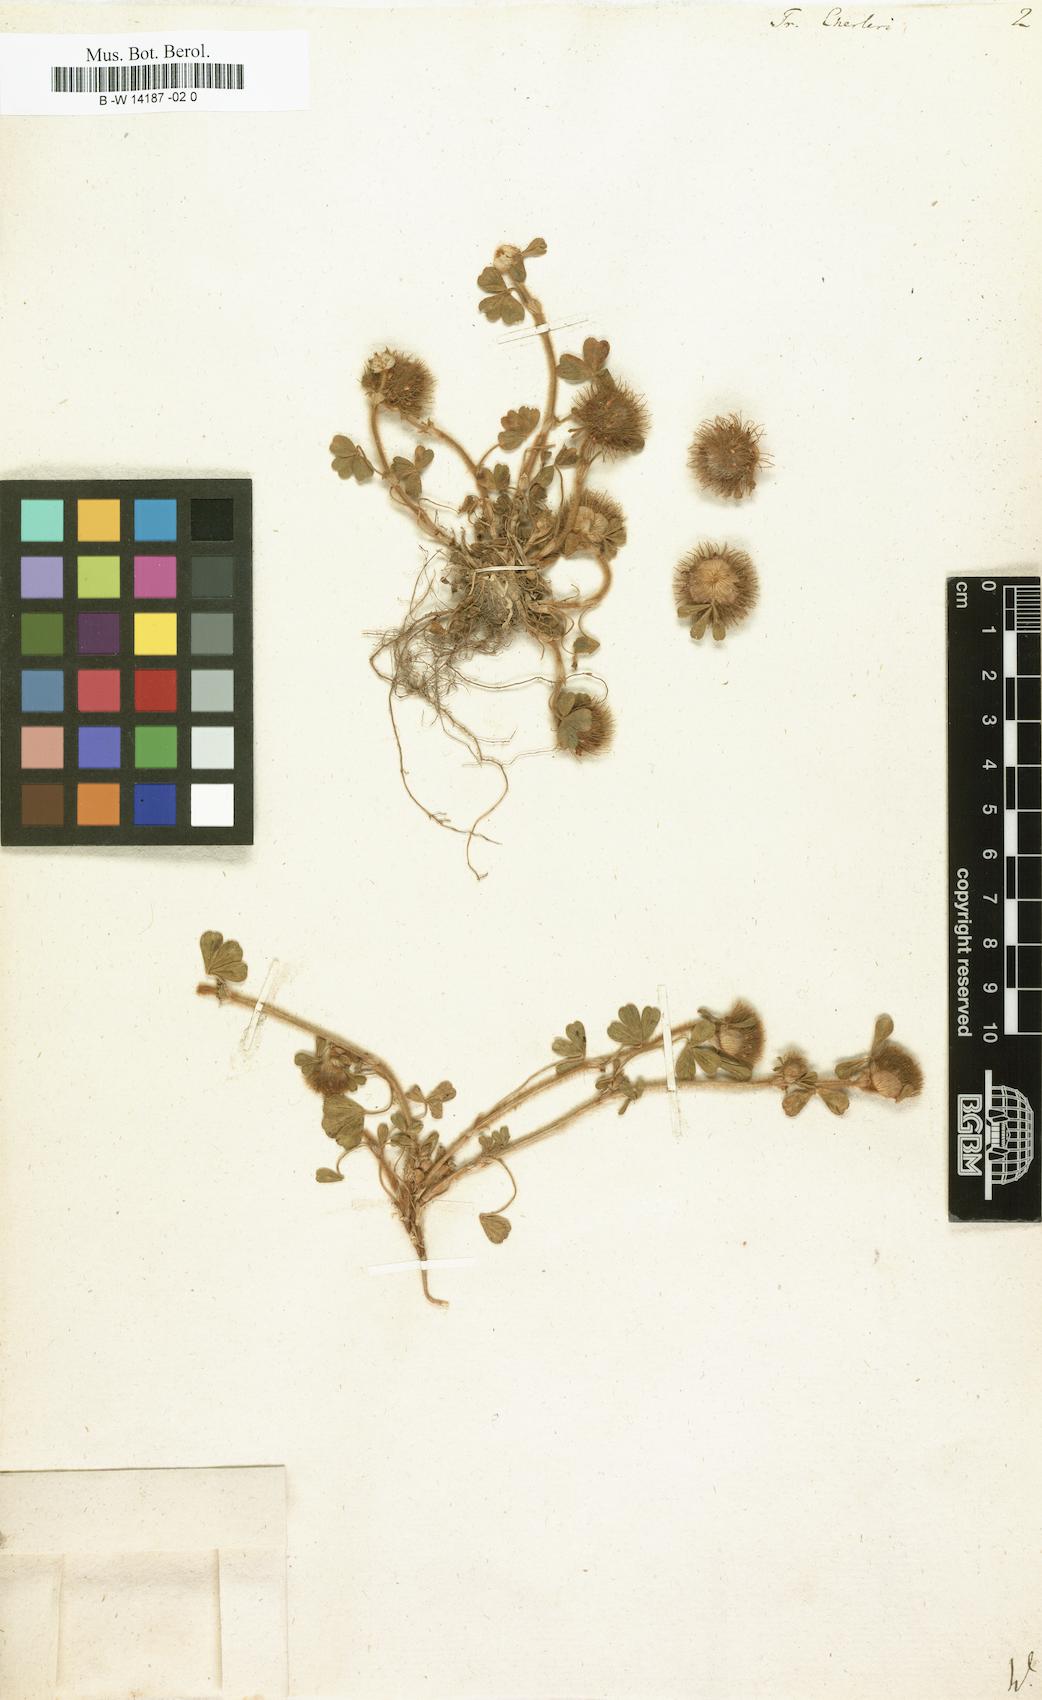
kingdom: Plantae
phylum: Tracheophyta
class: Magnoliopsida
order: Fabales
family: Fabaceae
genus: Trifolium
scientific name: Trifolium cherleri
